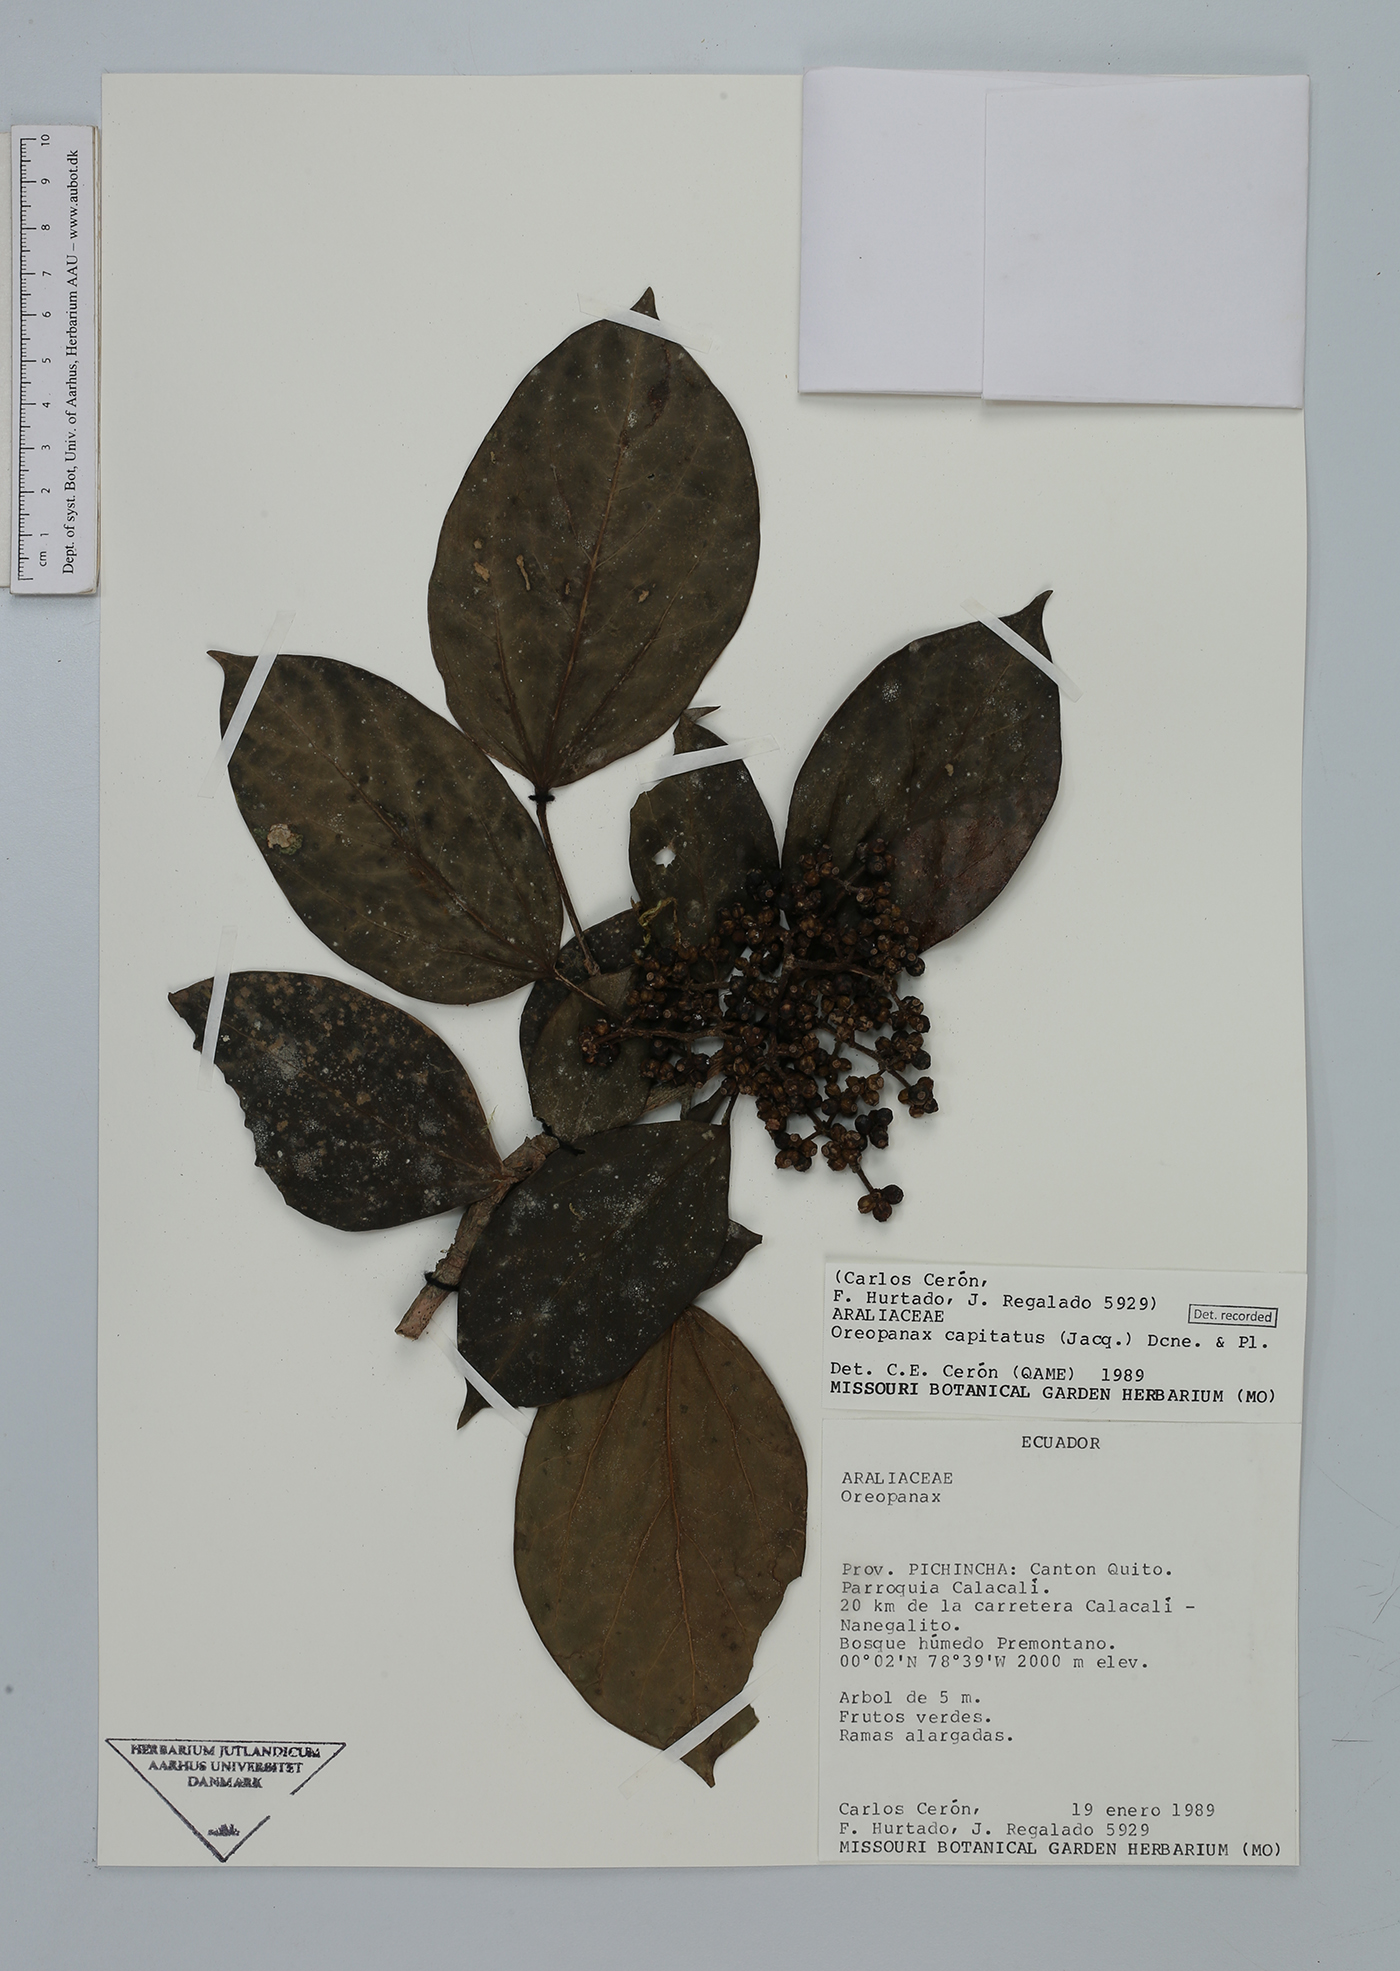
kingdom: Plantae
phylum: Tracheophyta
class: Magnoliopsida
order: Apiales
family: Araliaceae
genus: Oreopanax
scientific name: Oreopanax capitatus
